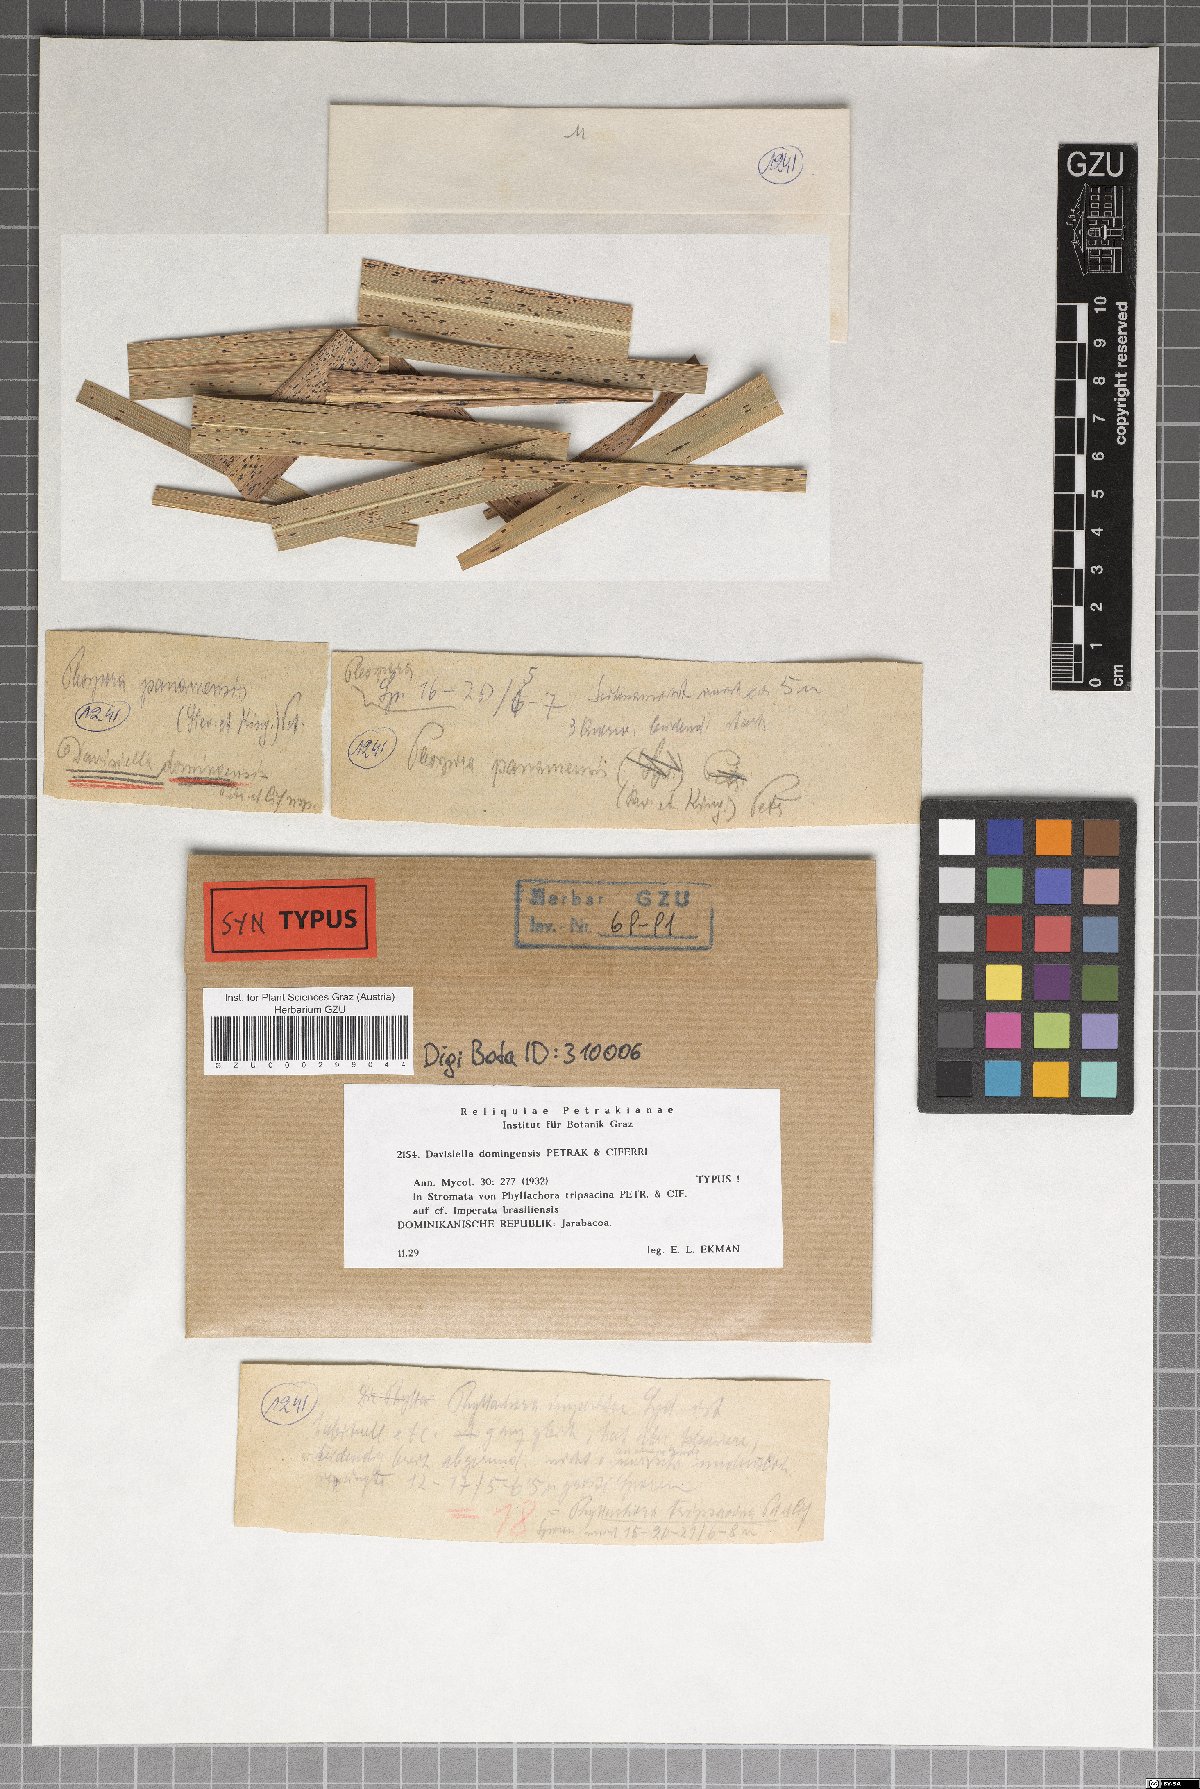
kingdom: Fungi
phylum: Ascomycota
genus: Davisiella
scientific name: Davisiella domingensis
